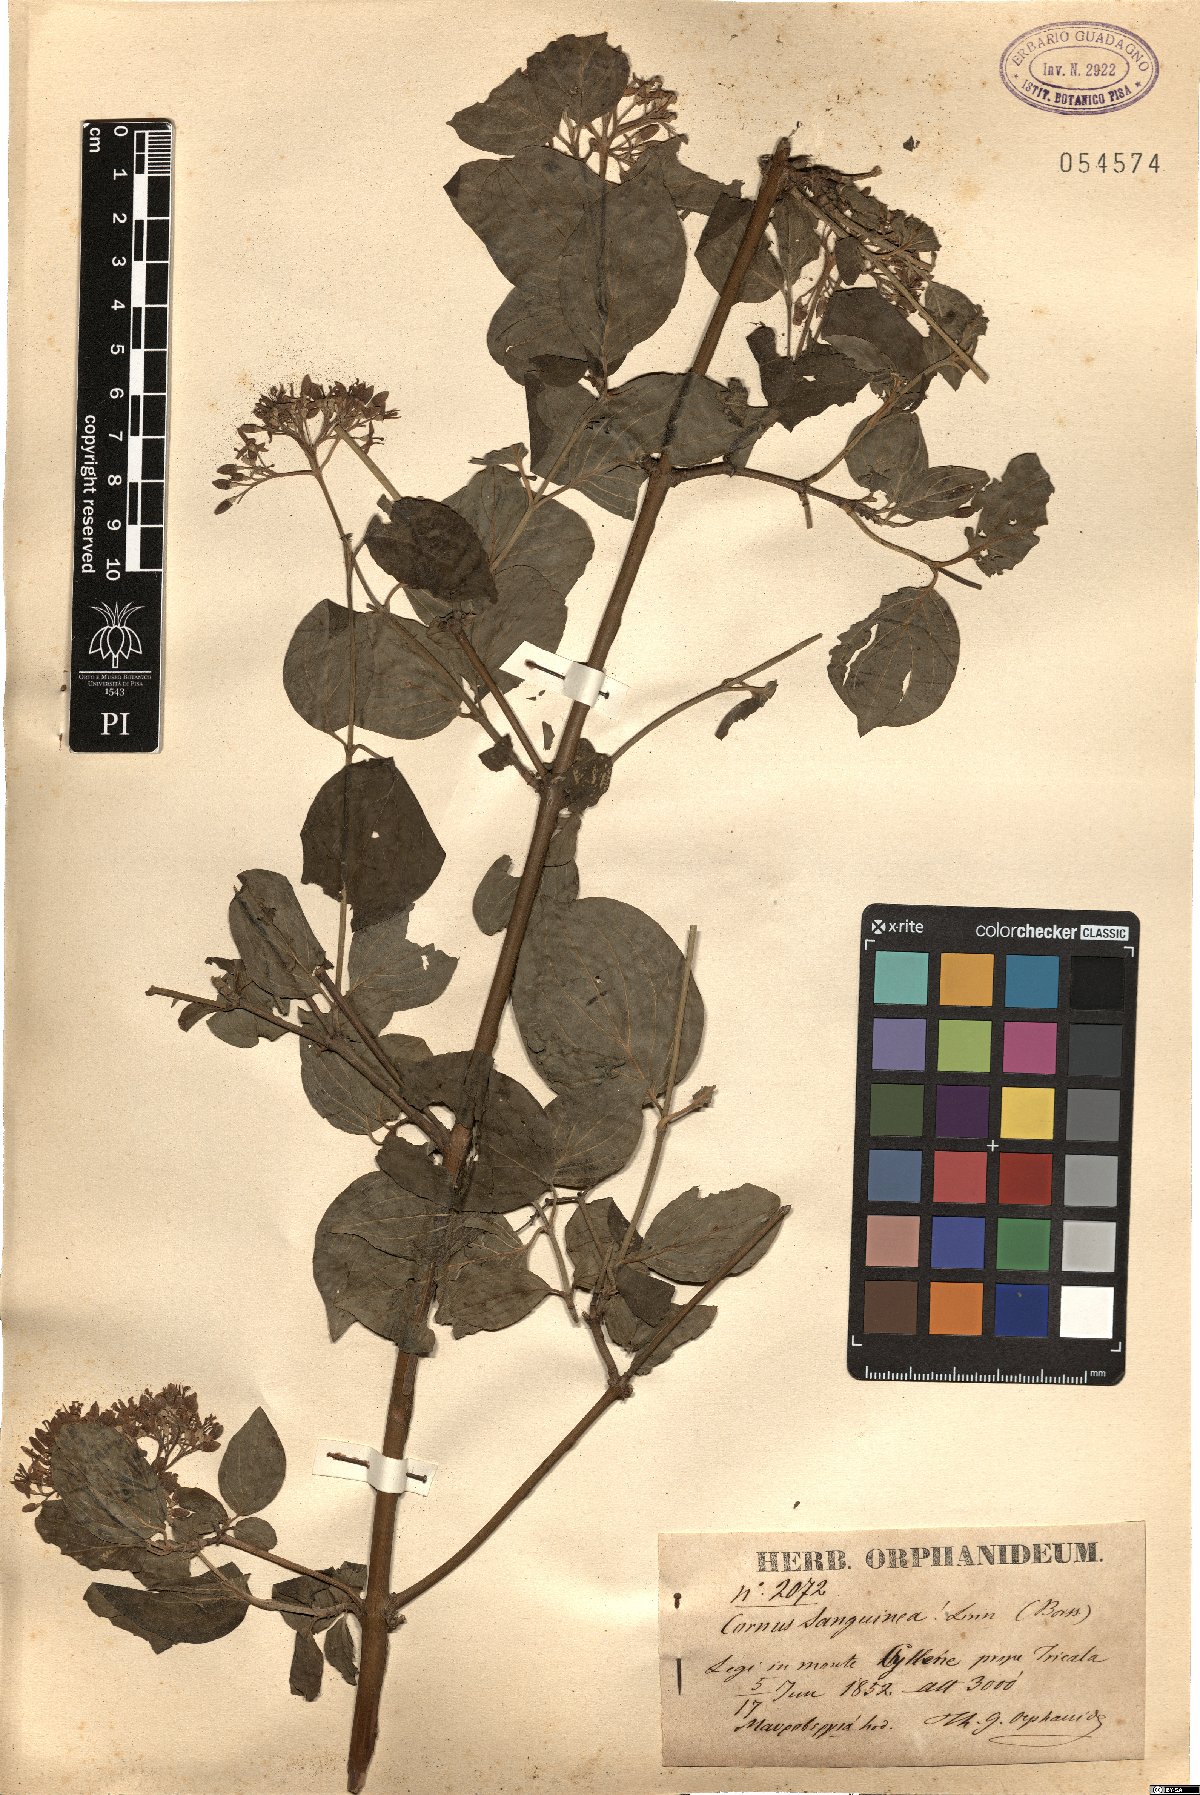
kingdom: Plantae
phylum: Tracheophyta
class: Magnoliopsida
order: Cornales
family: Cornaceae
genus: Cornus
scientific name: Cornus sanguinea
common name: Dogwood
